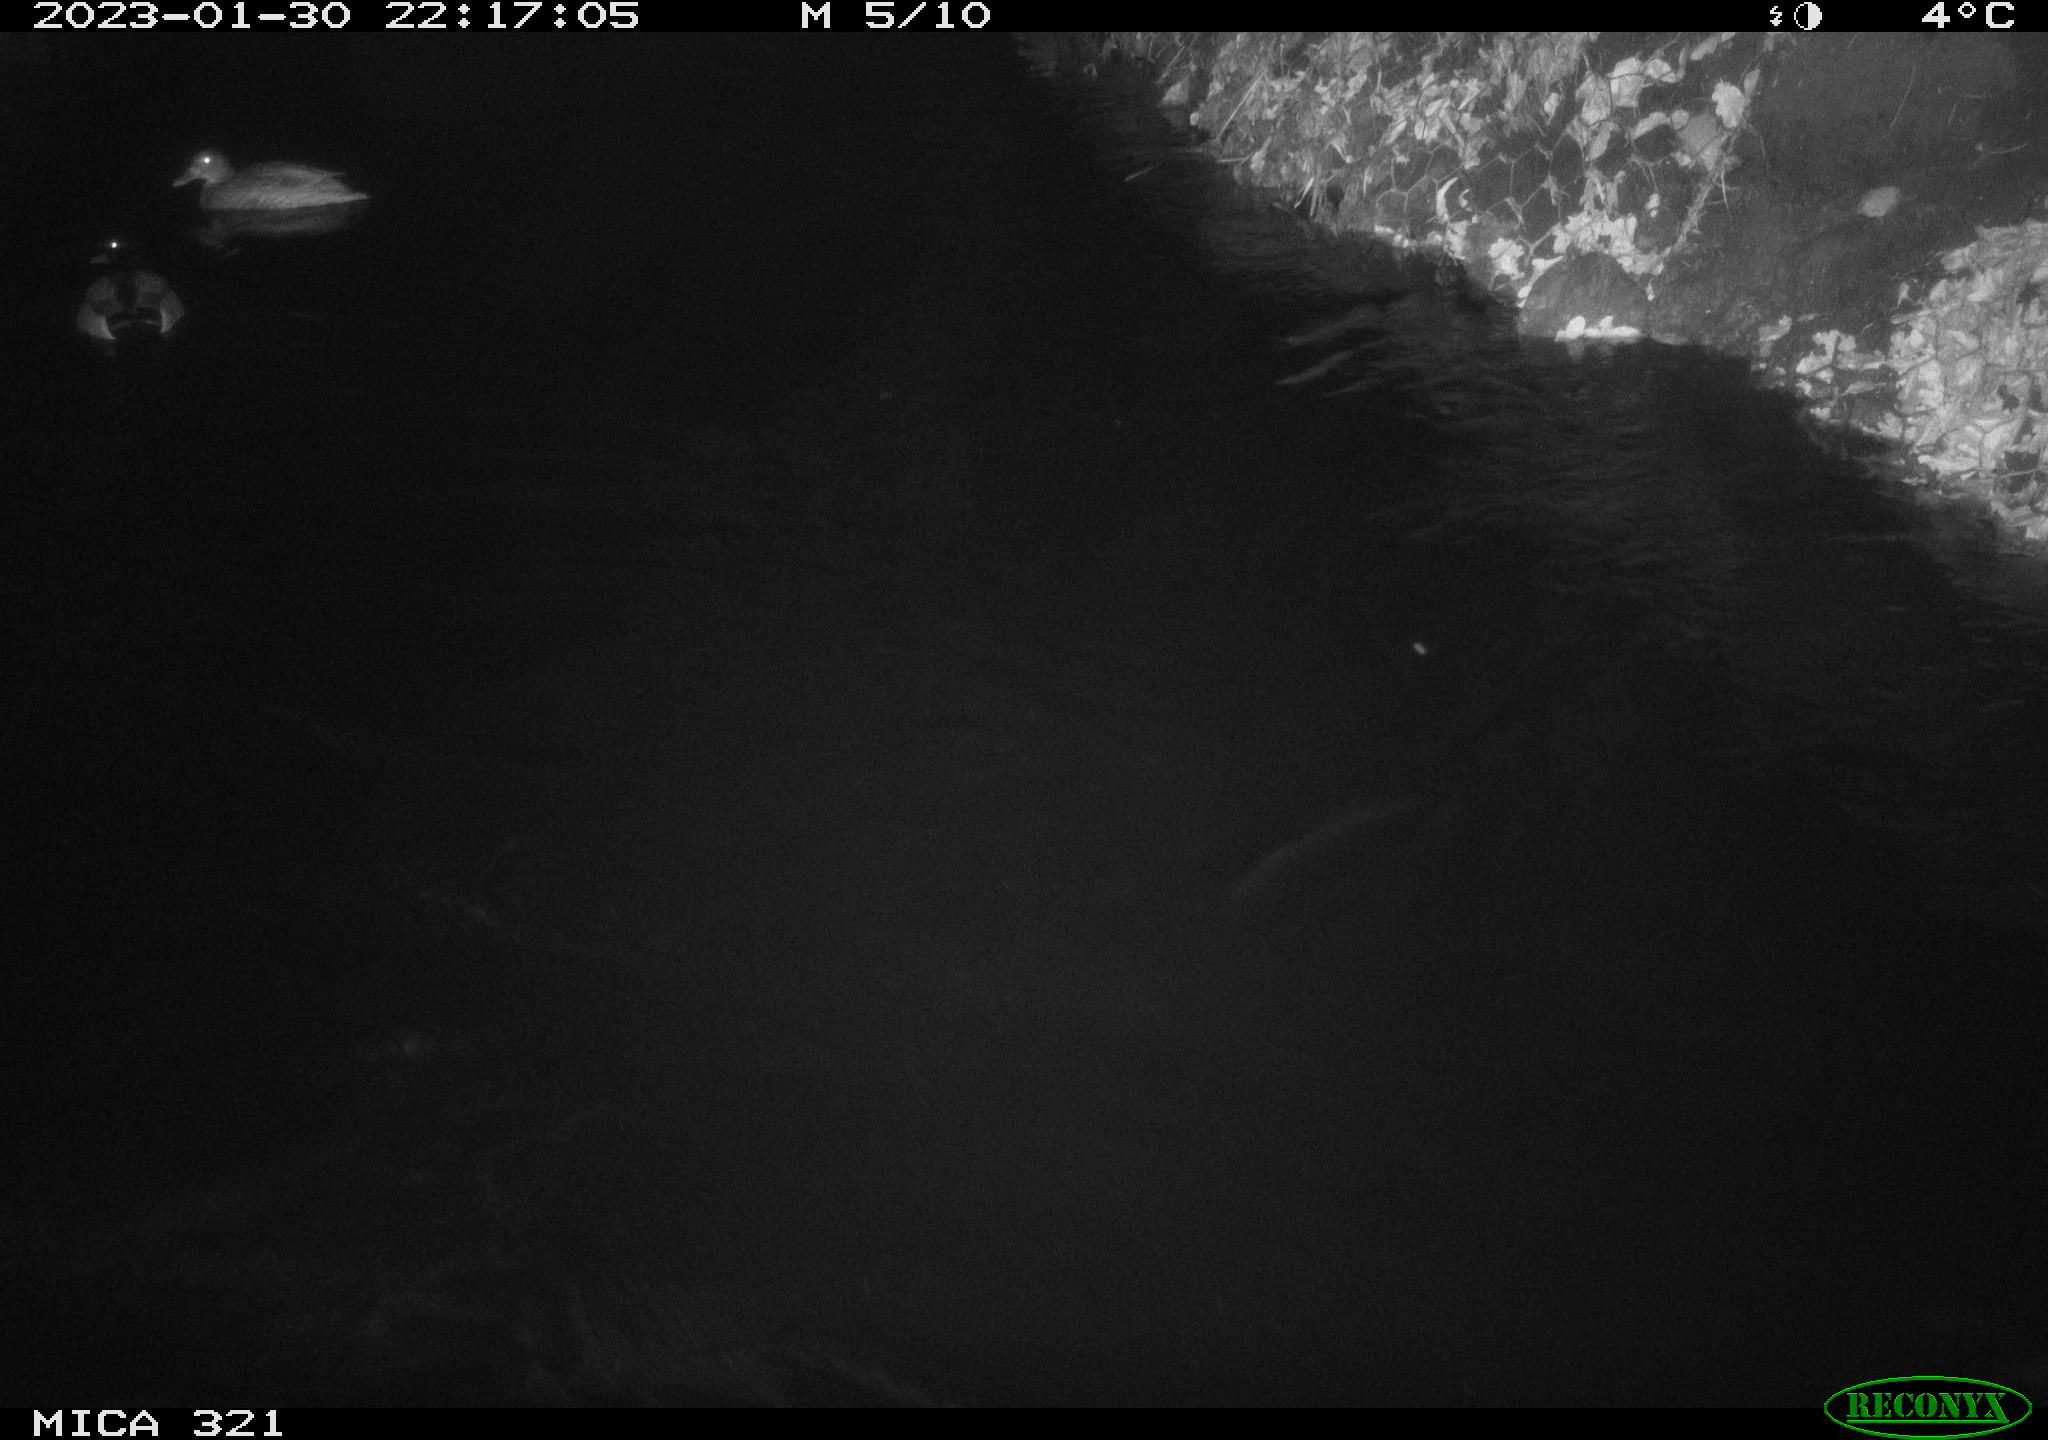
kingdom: Animalia
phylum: Chordata
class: Aves
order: Anseriformes
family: Anatidae
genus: Anas
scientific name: Anas
